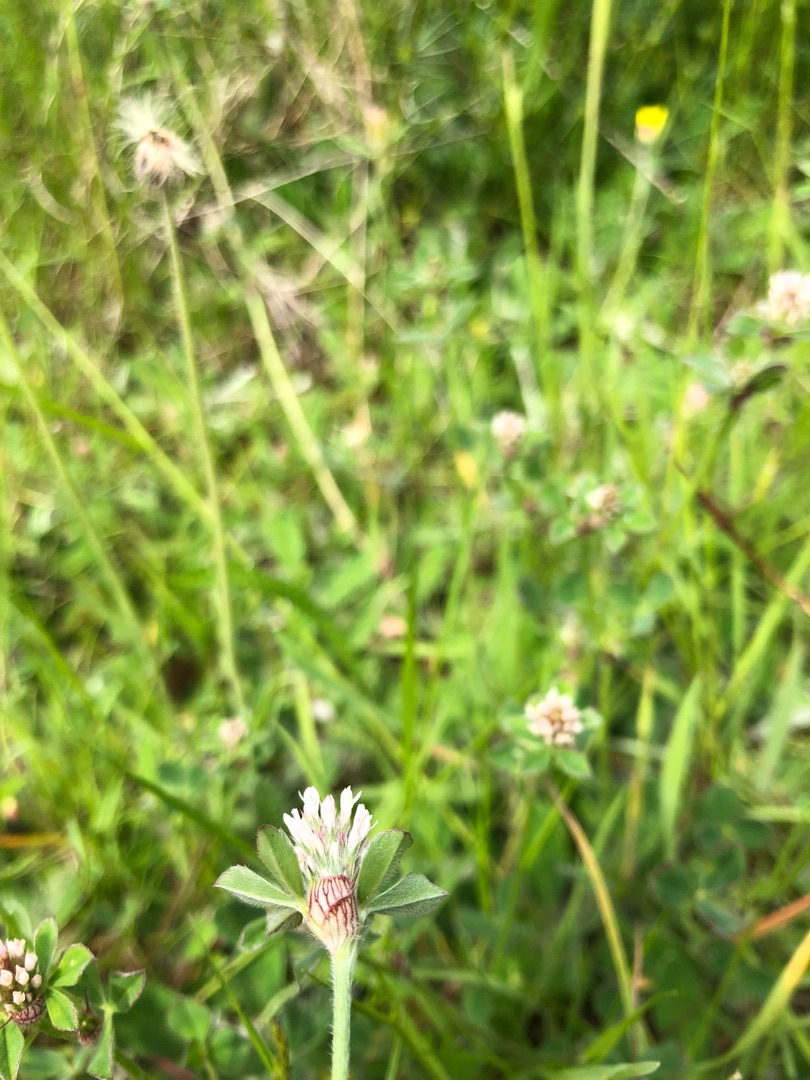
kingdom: Plantae
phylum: Tracheophyta
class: Magnoliopsida
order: Fabales
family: Fabaceae
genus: Trifolium
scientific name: Trifolium striatum
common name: Stribet kløver
